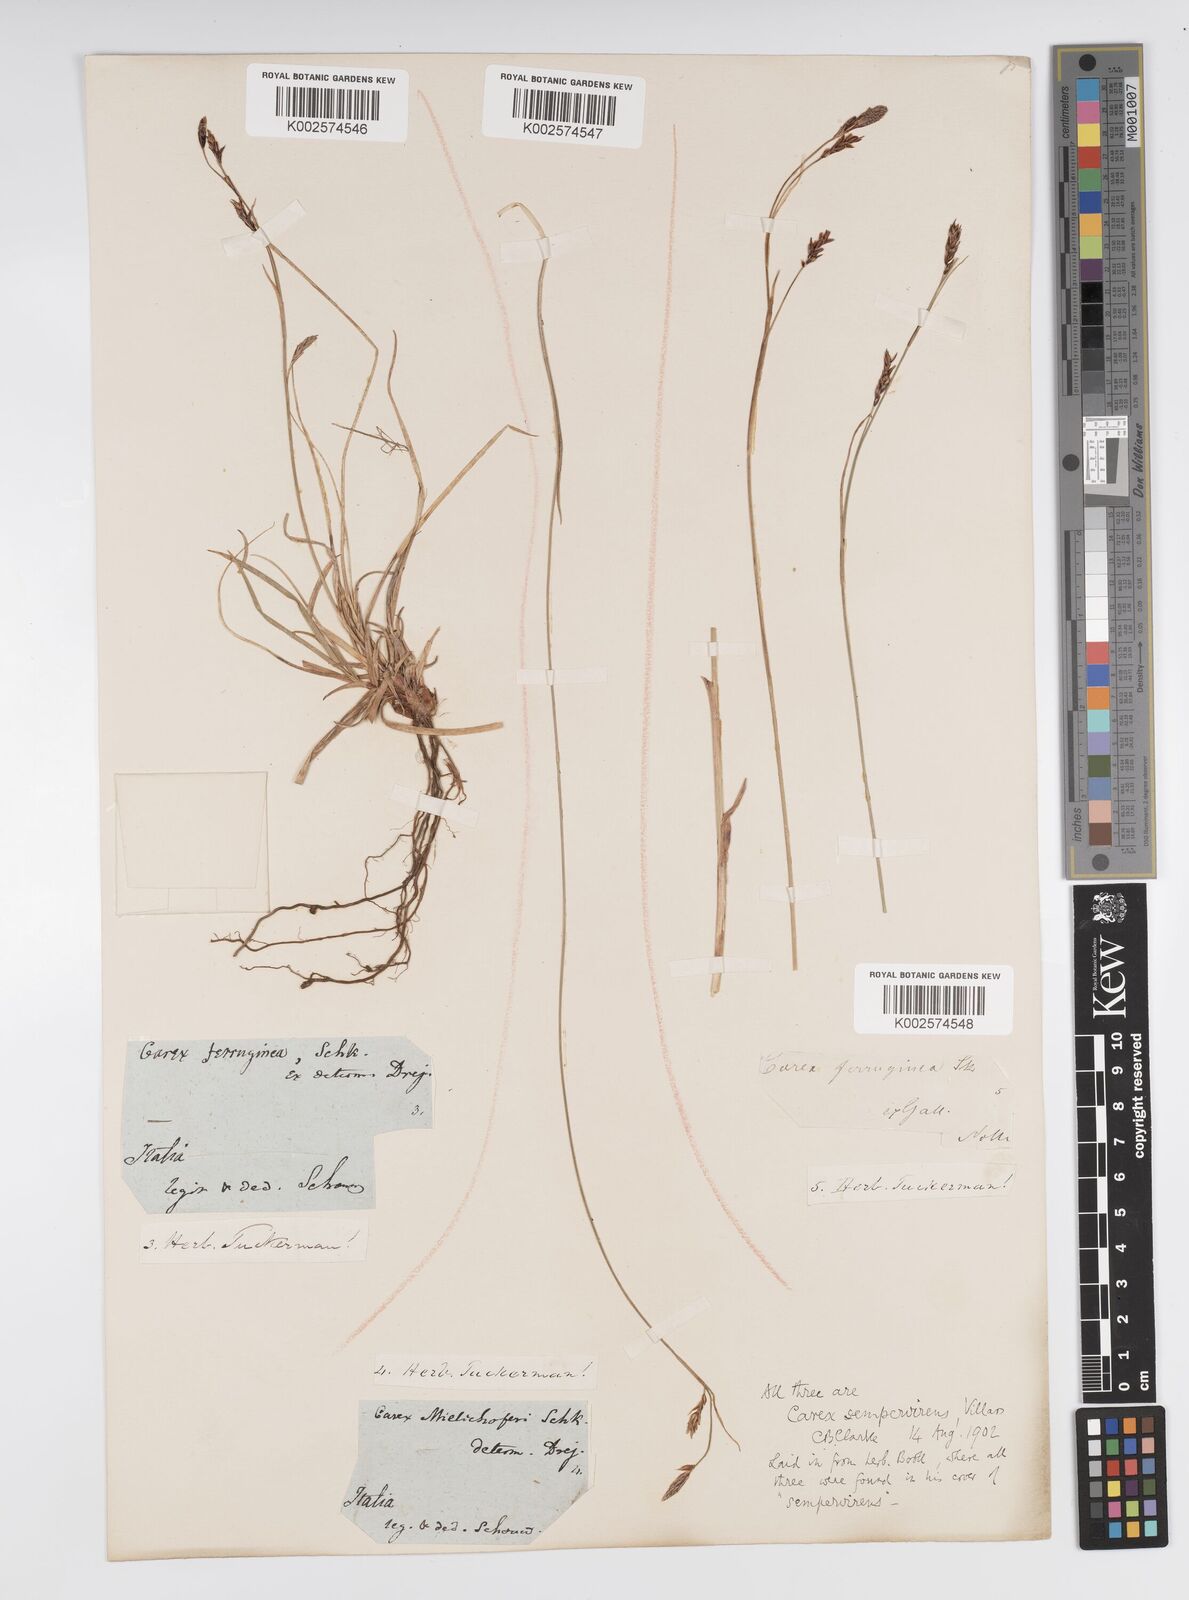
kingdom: Plantae
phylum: Tracheophyta
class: Liliopsida
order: Poales
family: Cyperaceae
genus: Carex
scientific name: Carex sempervirens
